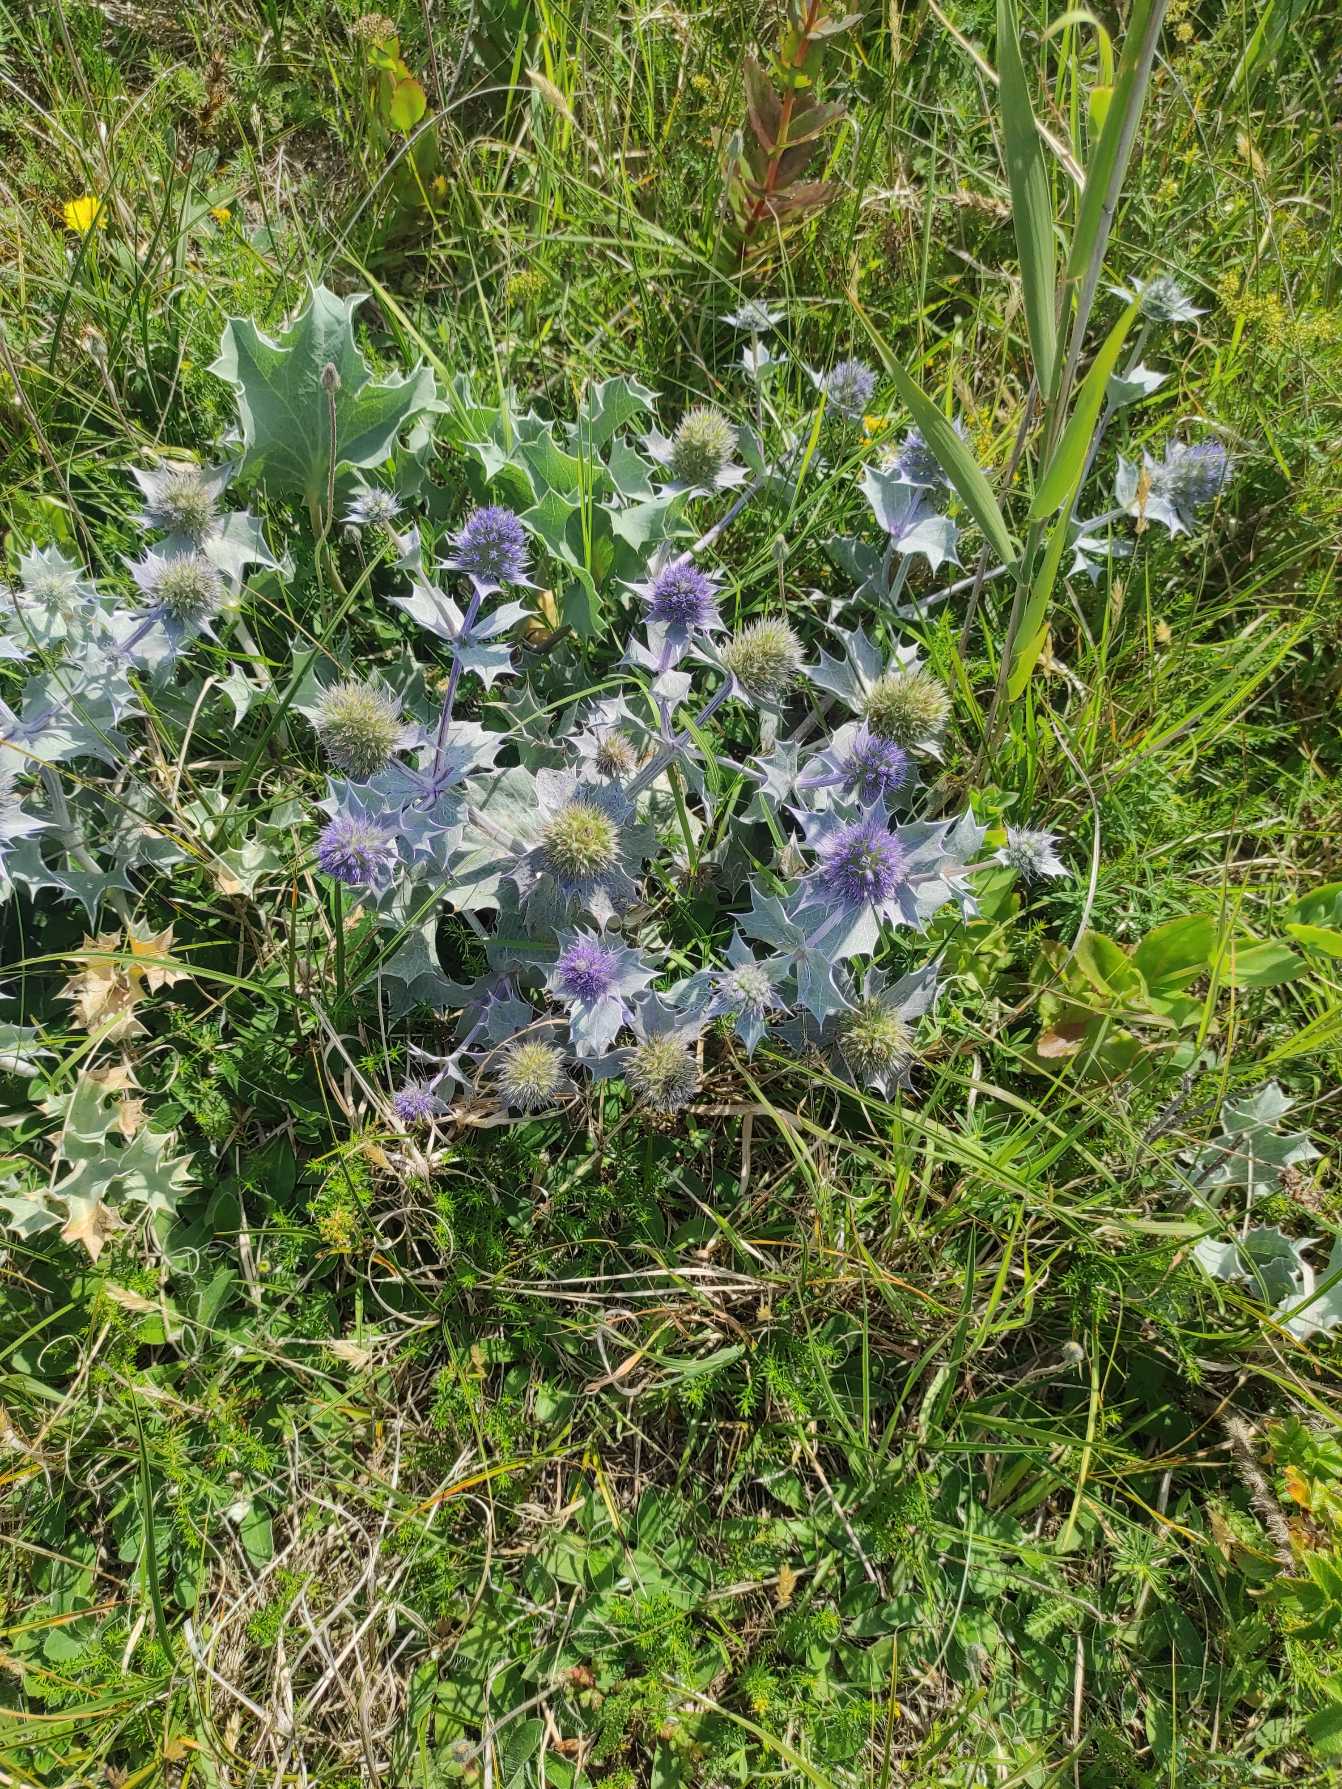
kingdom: Plantae
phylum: Tracheophyta
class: Magnoliopsida
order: Apiales
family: Apiaceae
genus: Eryngium
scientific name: Eryngium maritimum
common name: Strand-mandstro
